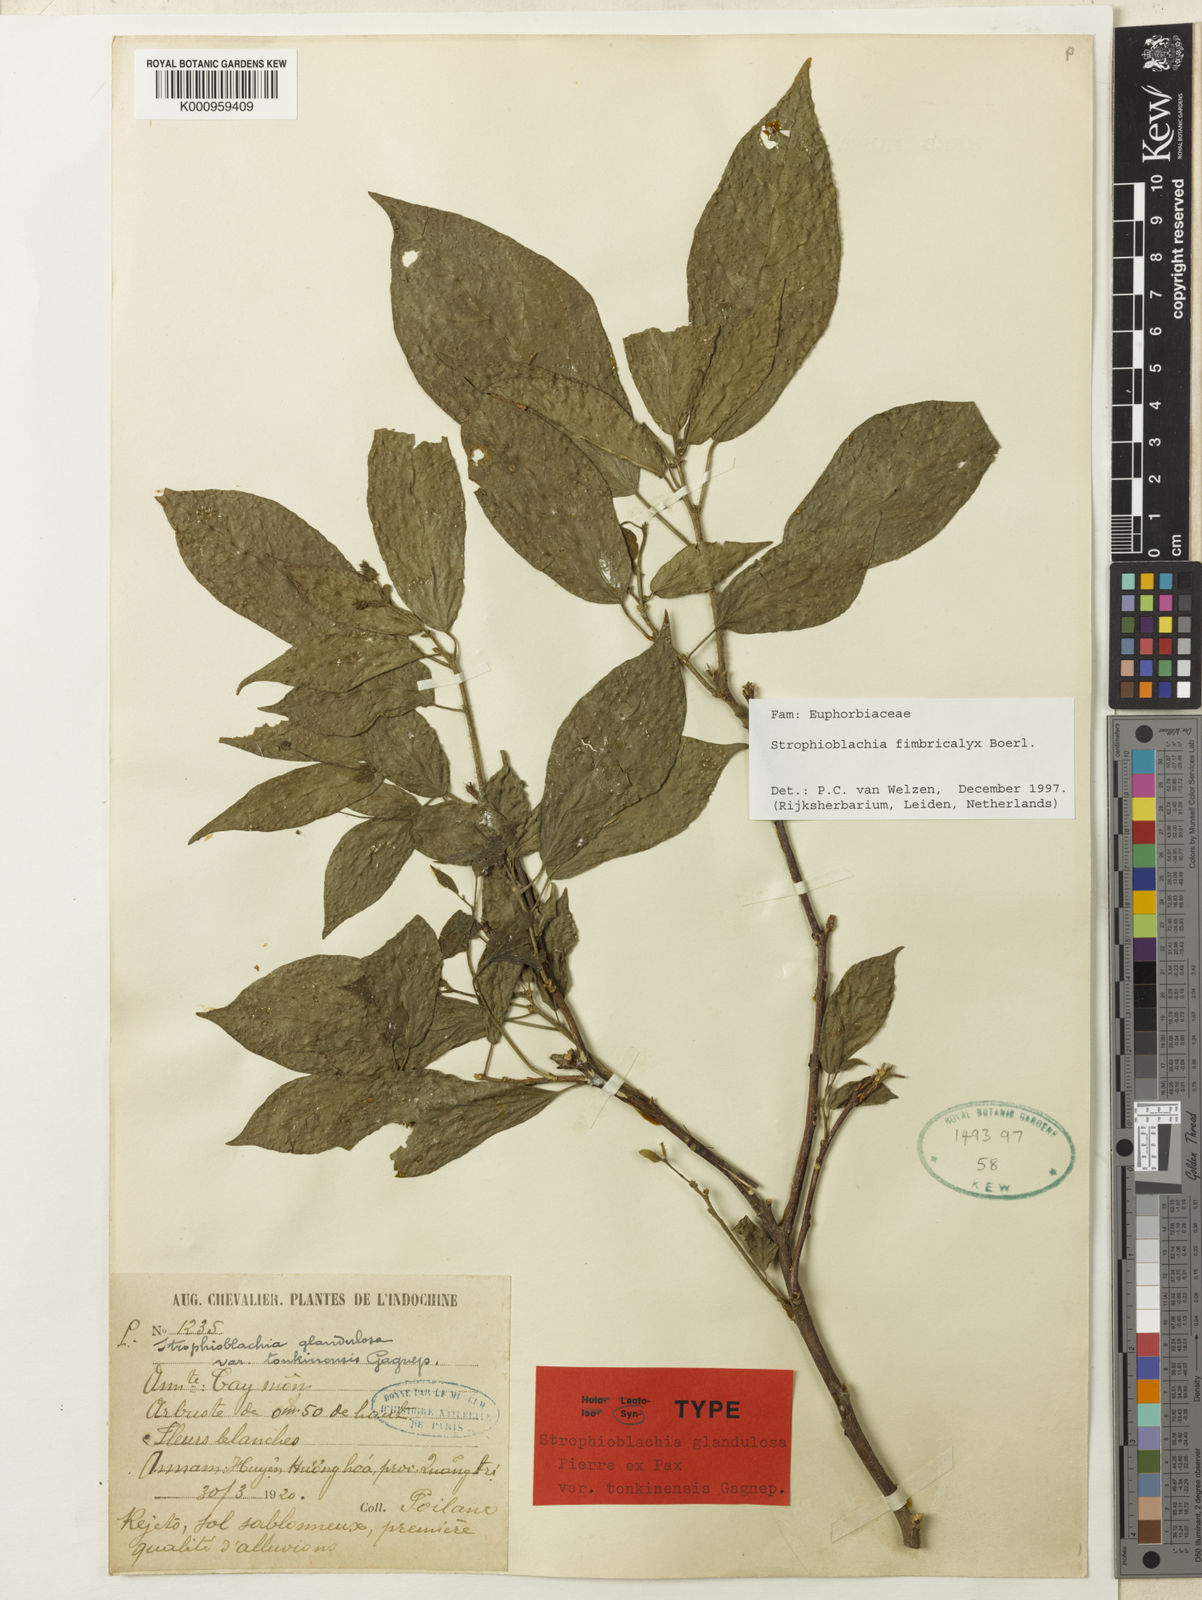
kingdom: Plantae
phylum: Tracheophyta
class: Magnoliopsida
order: Malpighiales
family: Euphorbiaceae
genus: Strophioblachia
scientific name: Strophioblachia fimbricalyx
